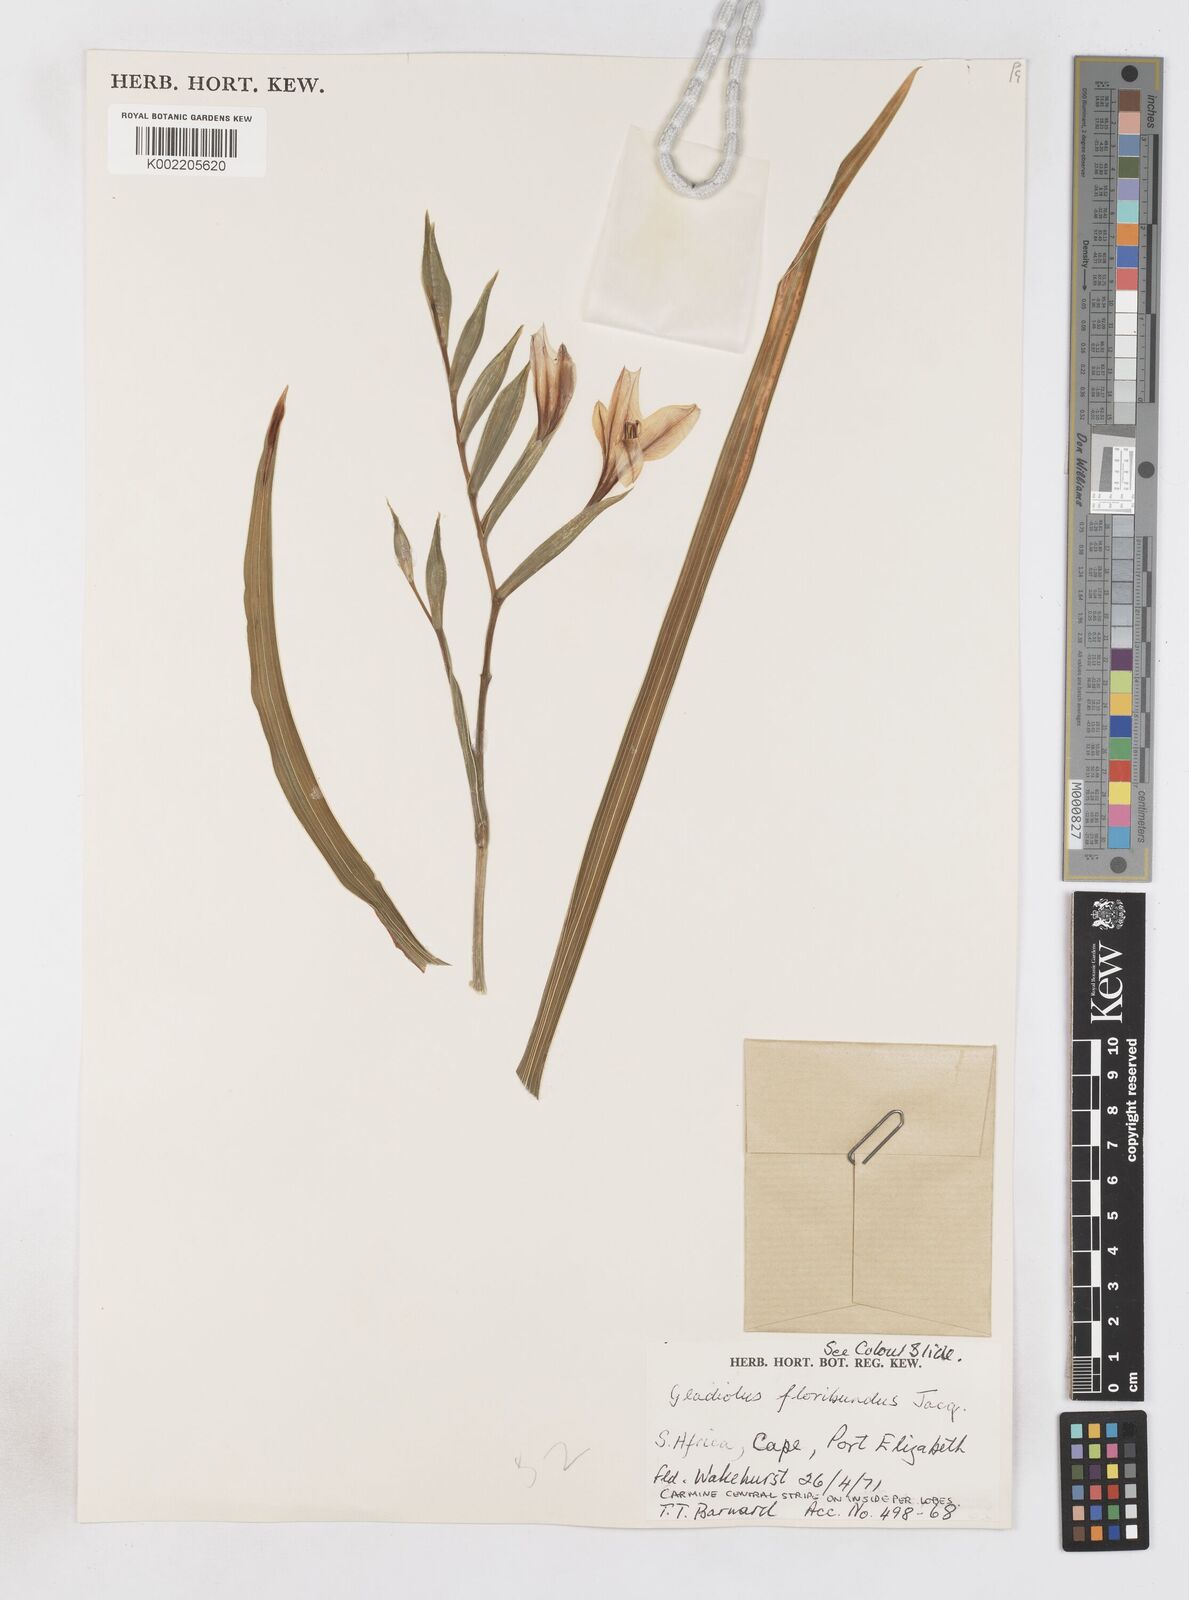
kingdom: Plantae
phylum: Tracheophyta
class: Liliopsida
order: Asparagales
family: Iridaceae
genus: Gladiolus
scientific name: Gladiolus floribundus
